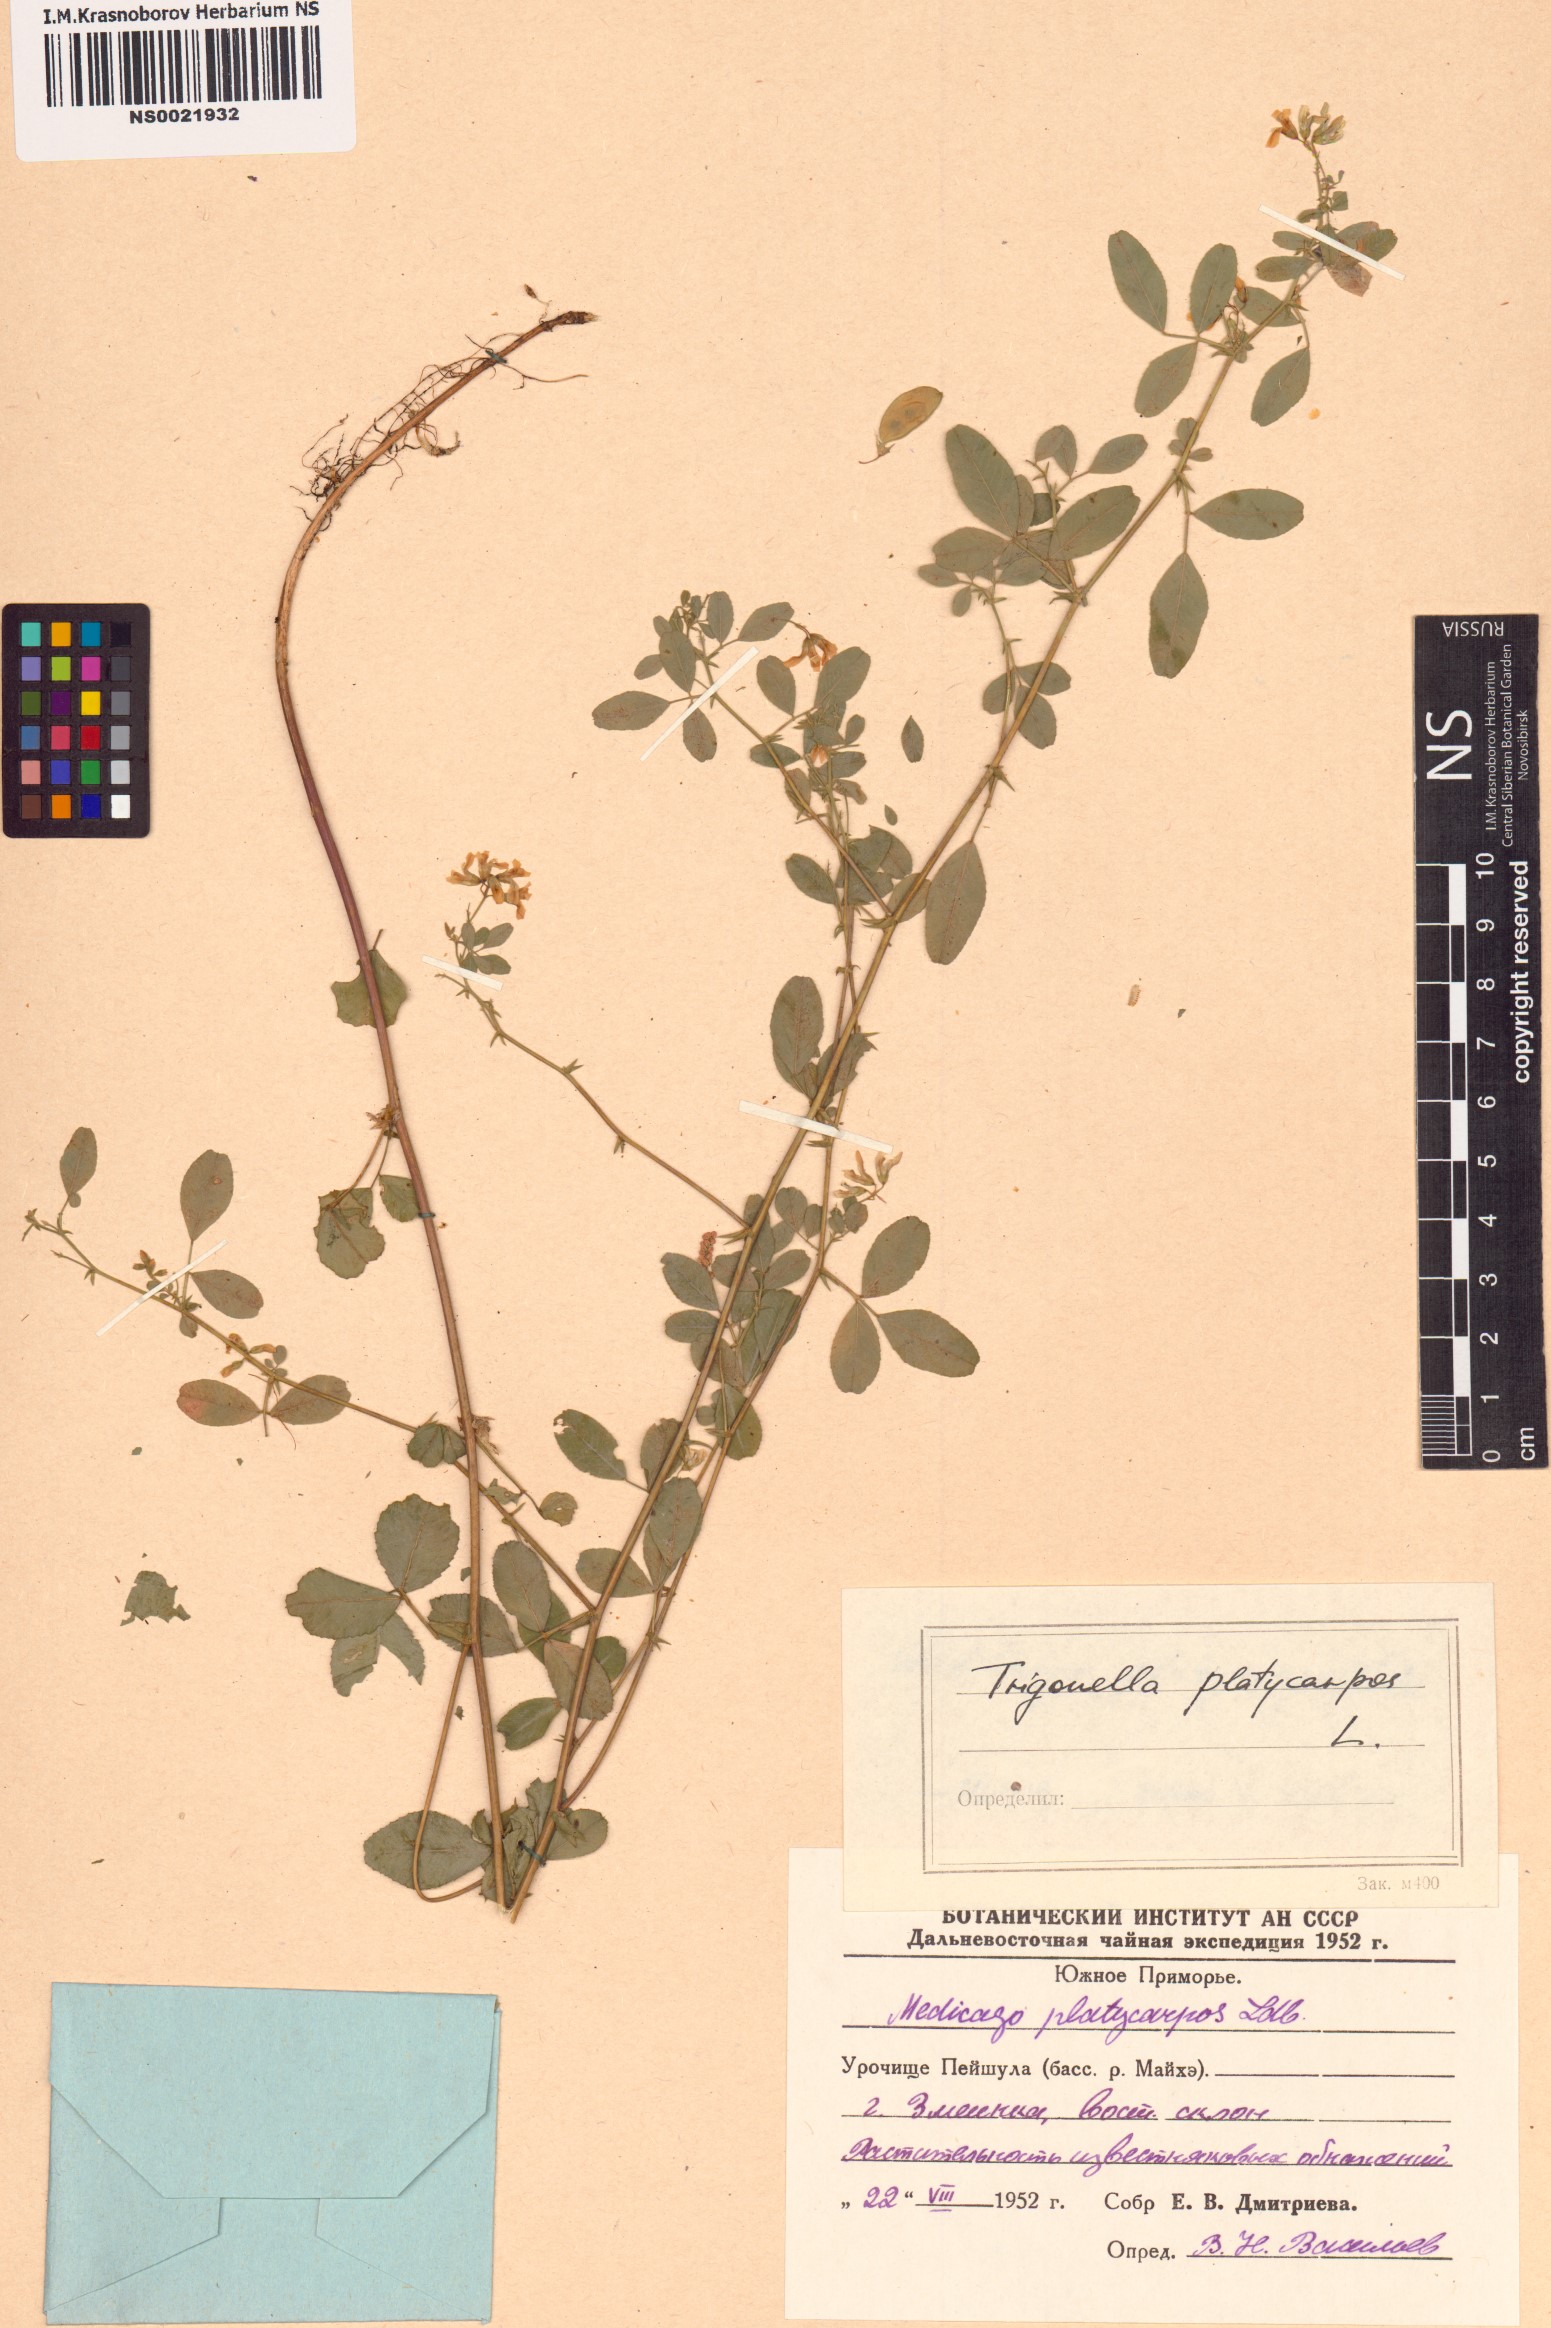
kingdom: Plantae
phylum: Tracheophyta
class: Magnoliopsida
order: Fabales
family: Fabaceae
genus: Medicago
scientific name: Medicago platycarpos
